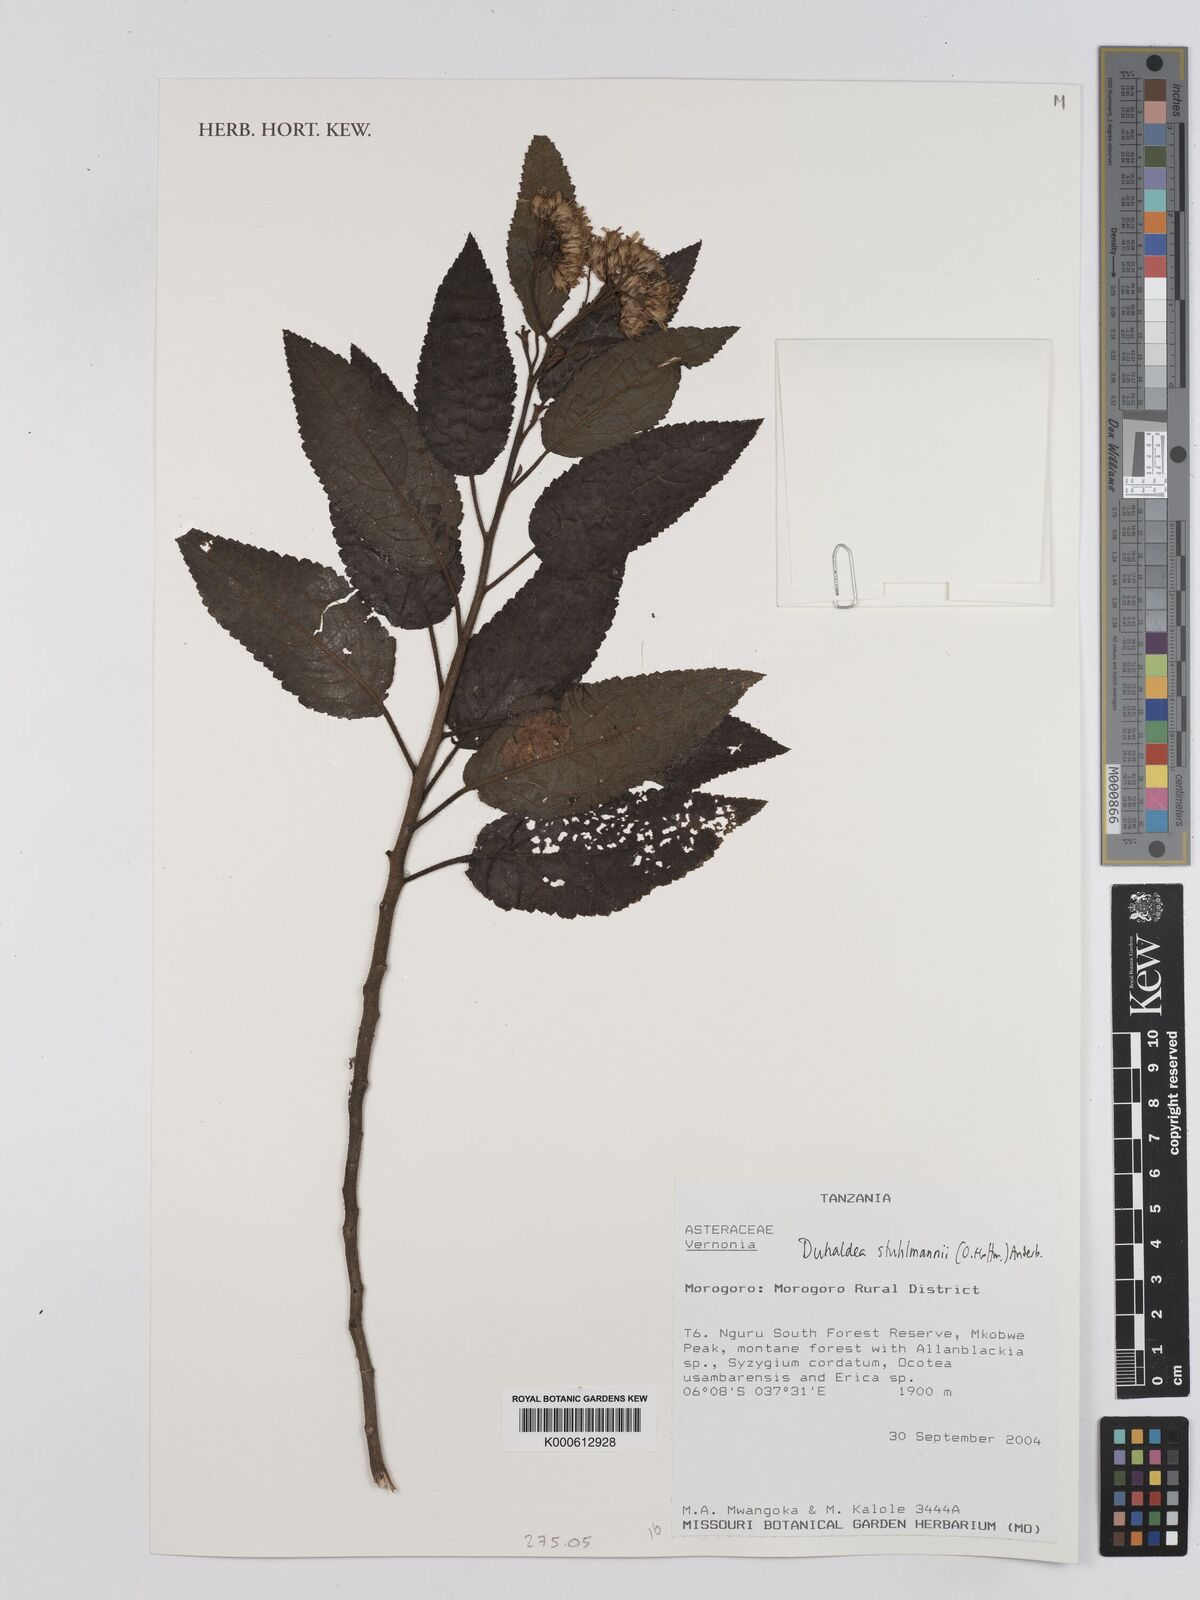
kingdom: Plantae
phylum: Tracheophyta
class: Magnoliopsida
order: Asterales
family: Asteraceae
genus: Anisopappus
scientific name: Anisopappus stuhlmannii
